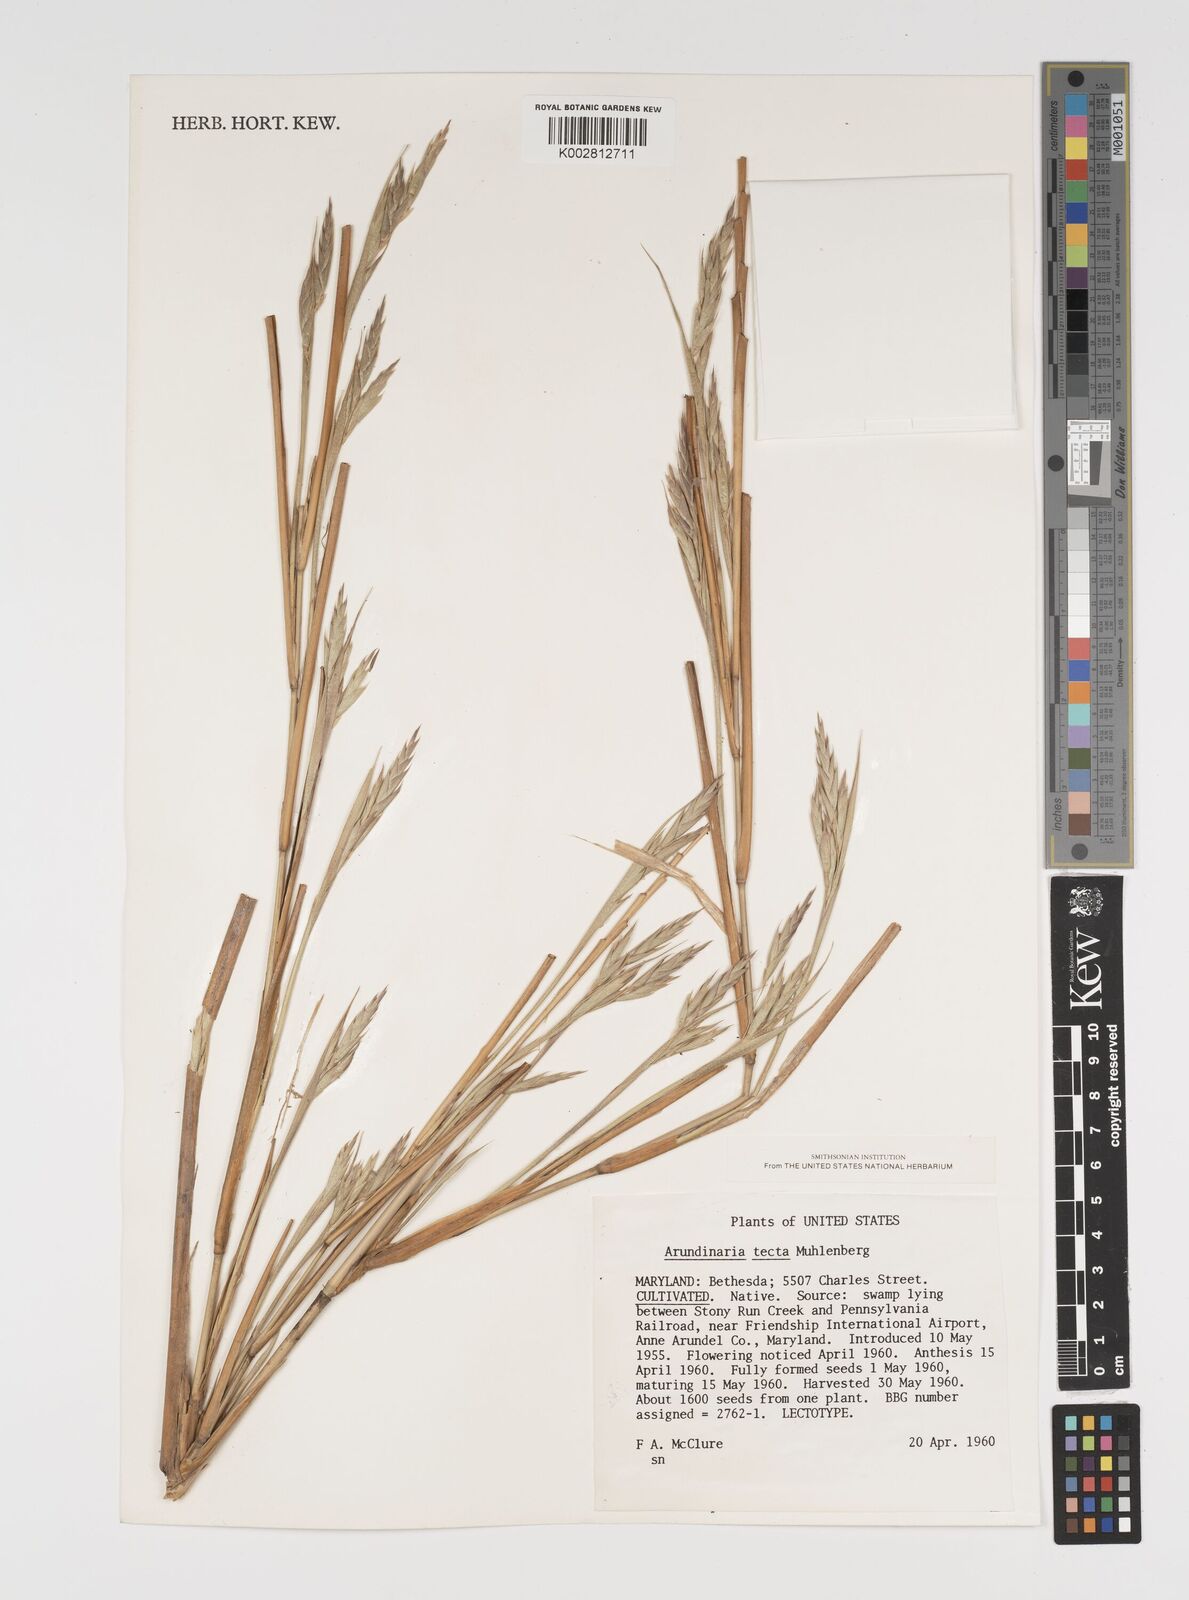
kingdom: Plantae
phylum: Tracheophyta
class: Liliopsida
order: Poales
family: Poaceae
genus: Arundinaria
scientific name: Arundinaria tecta
